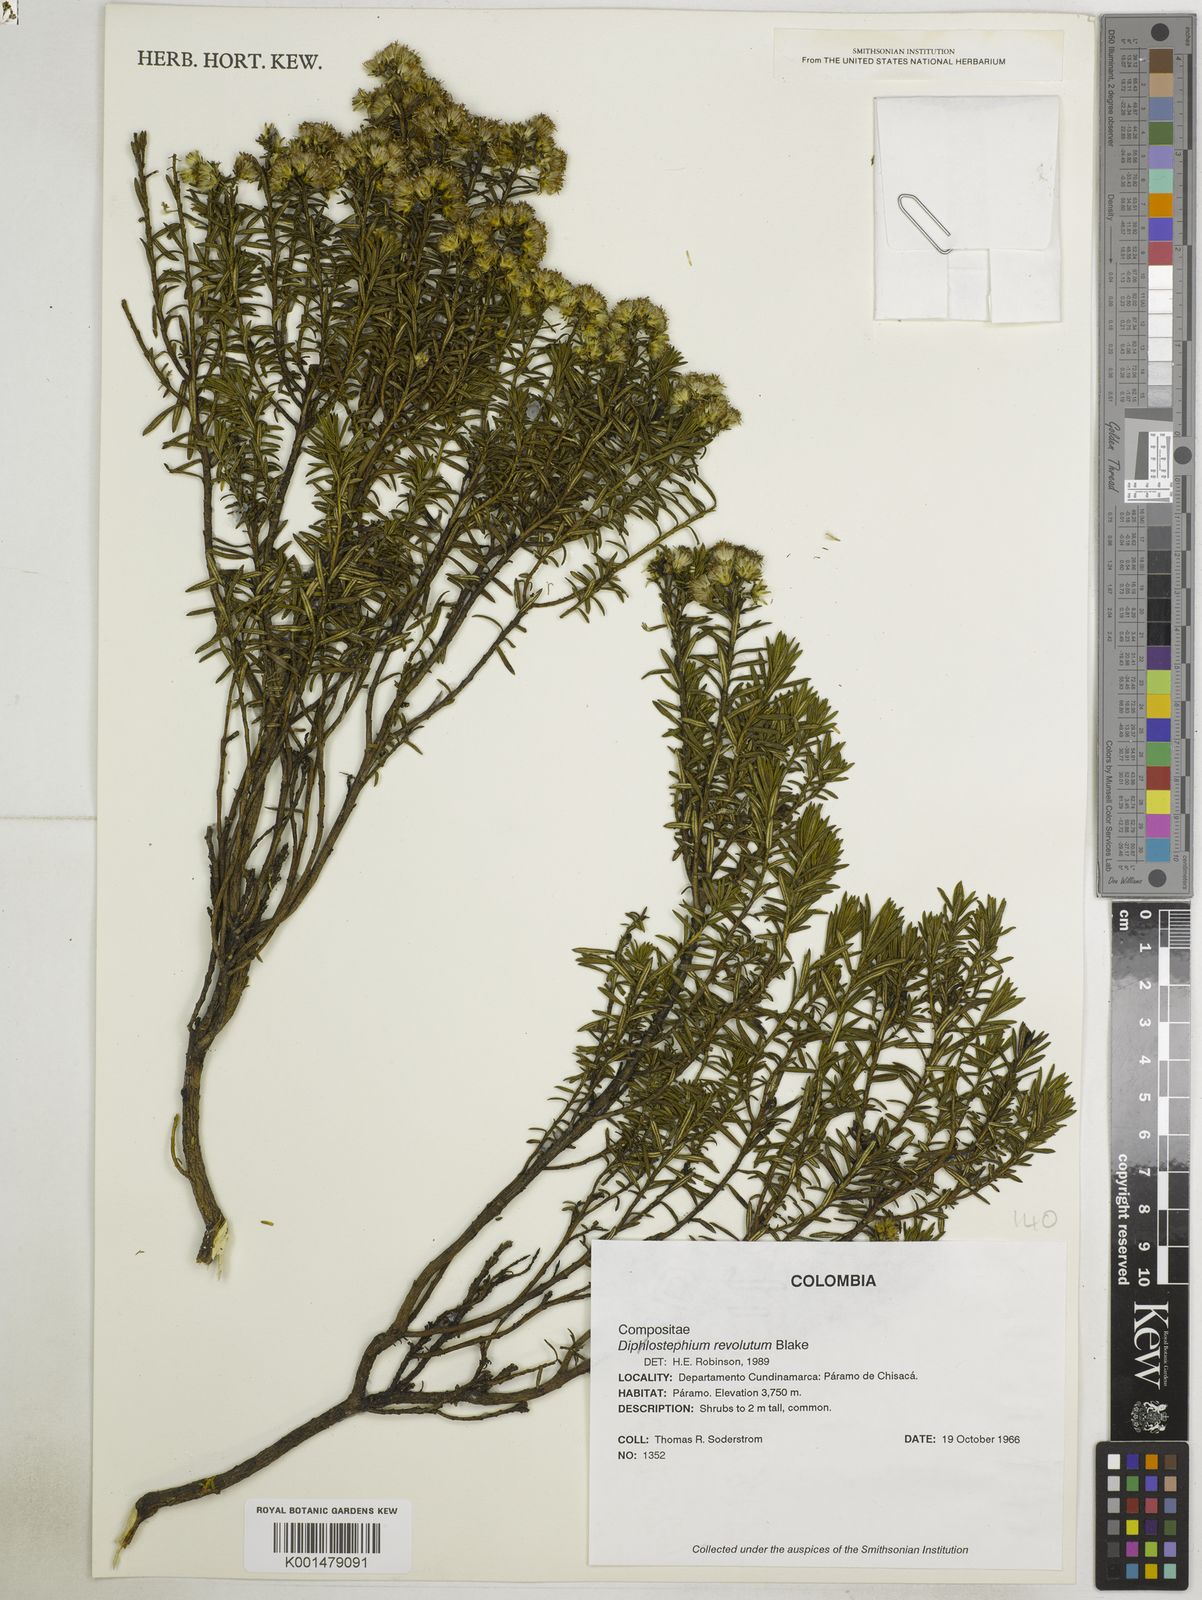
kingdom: Plantae
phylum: Tracheophyta
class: Magnoliopsida
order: Asterales
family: Asteraceae
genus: Linochilus
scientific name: Linochilus revolutus
